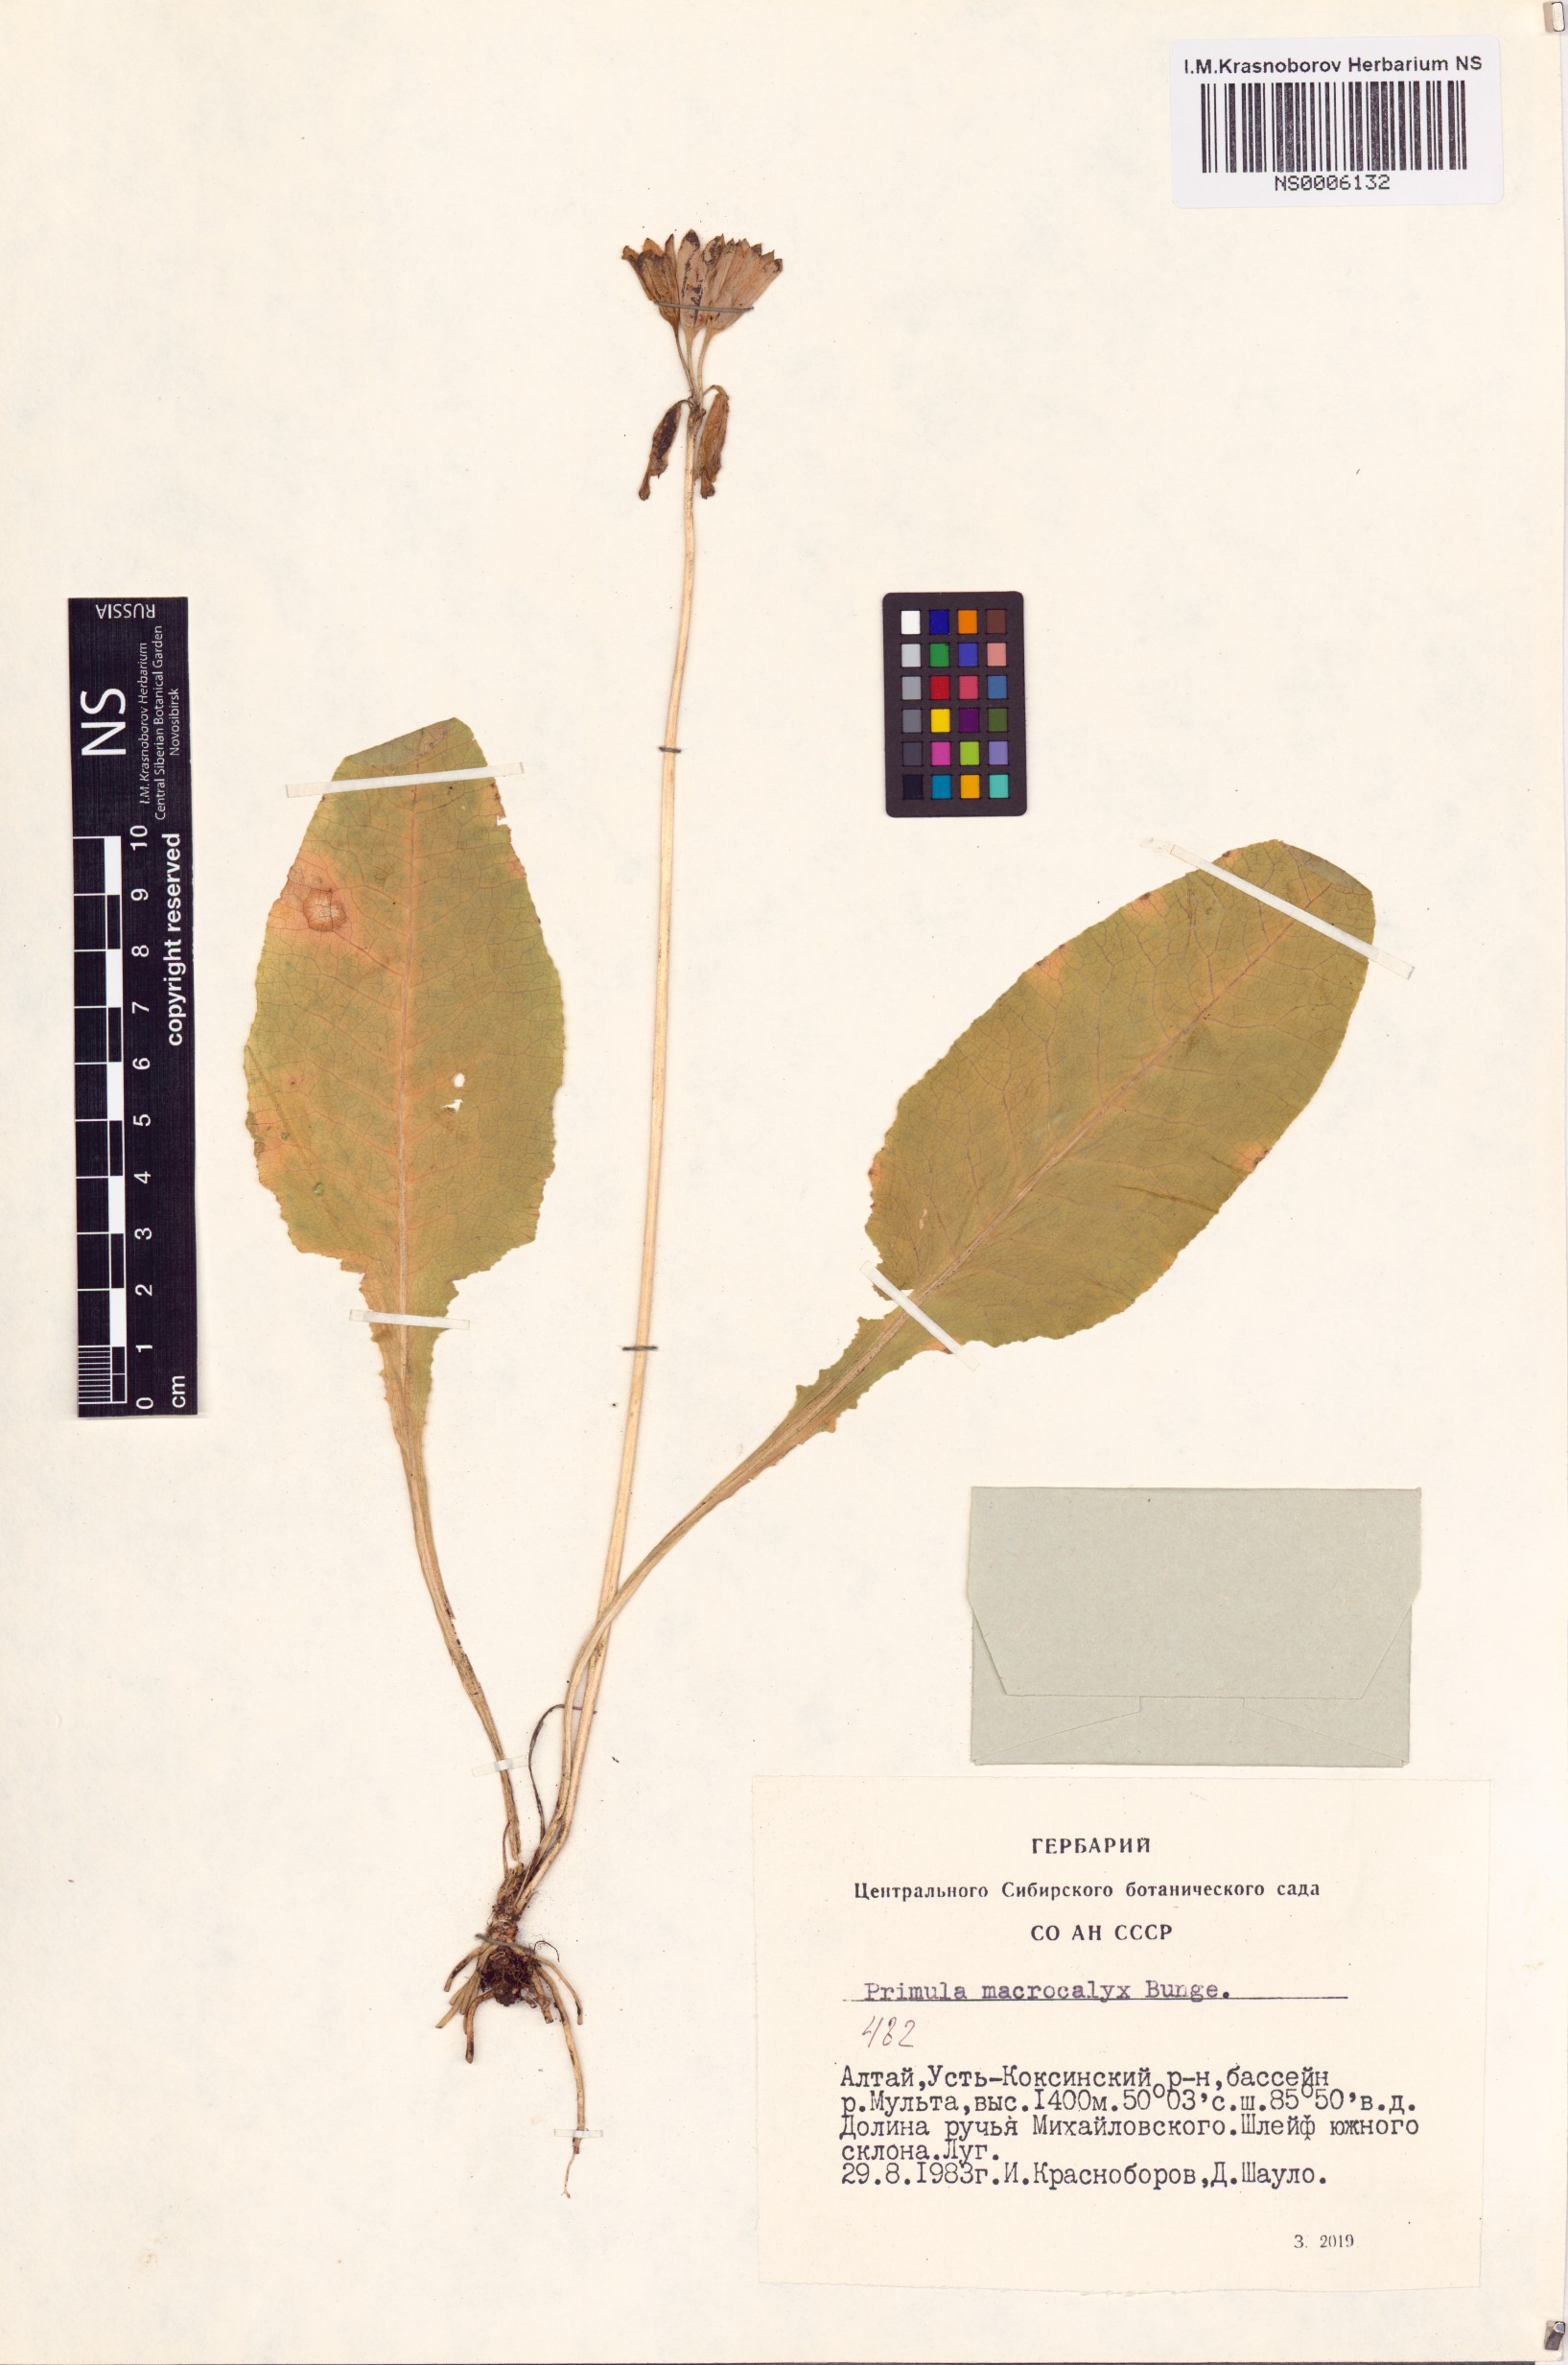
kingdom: Plantae
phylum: Tracheophyta
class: Magnoliopsida
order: Ericales
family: Primulaceae
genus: Primula
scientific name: Primula veris
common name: Cowslip
